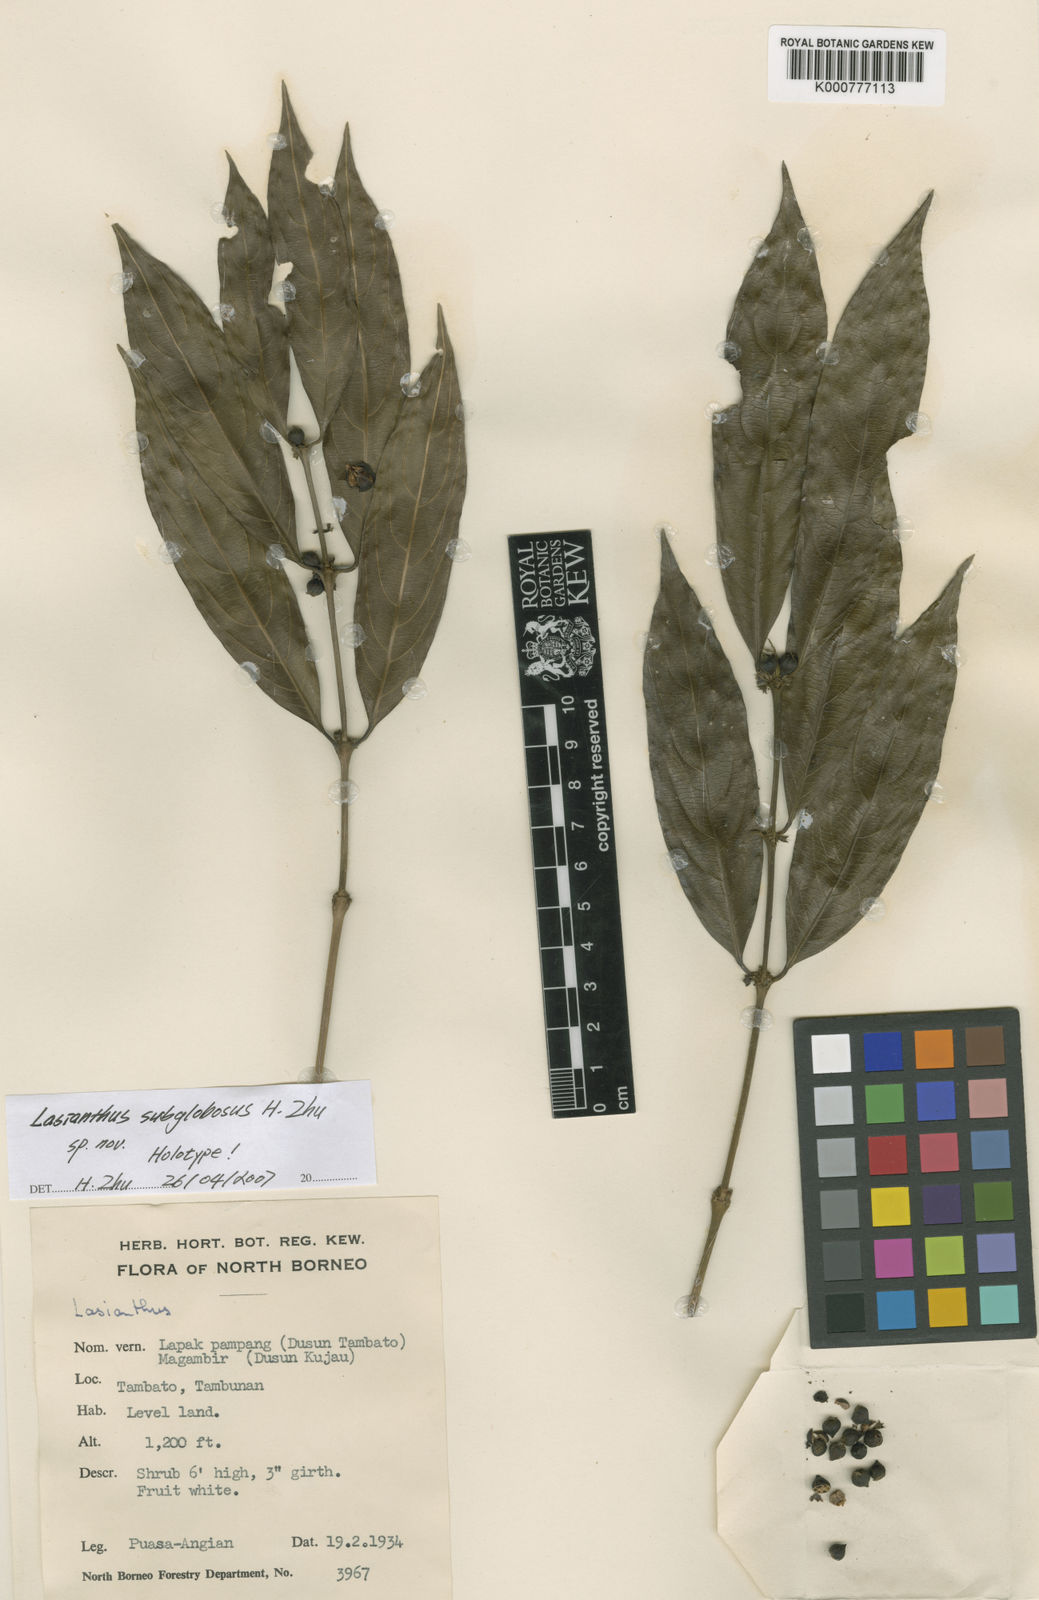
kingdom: Plantae
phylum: Tracheophyta
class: Magnoliopsida
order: Gentianales
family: Rubiaceae
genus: Lasianthus
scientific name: Lasianthus subglobosus
